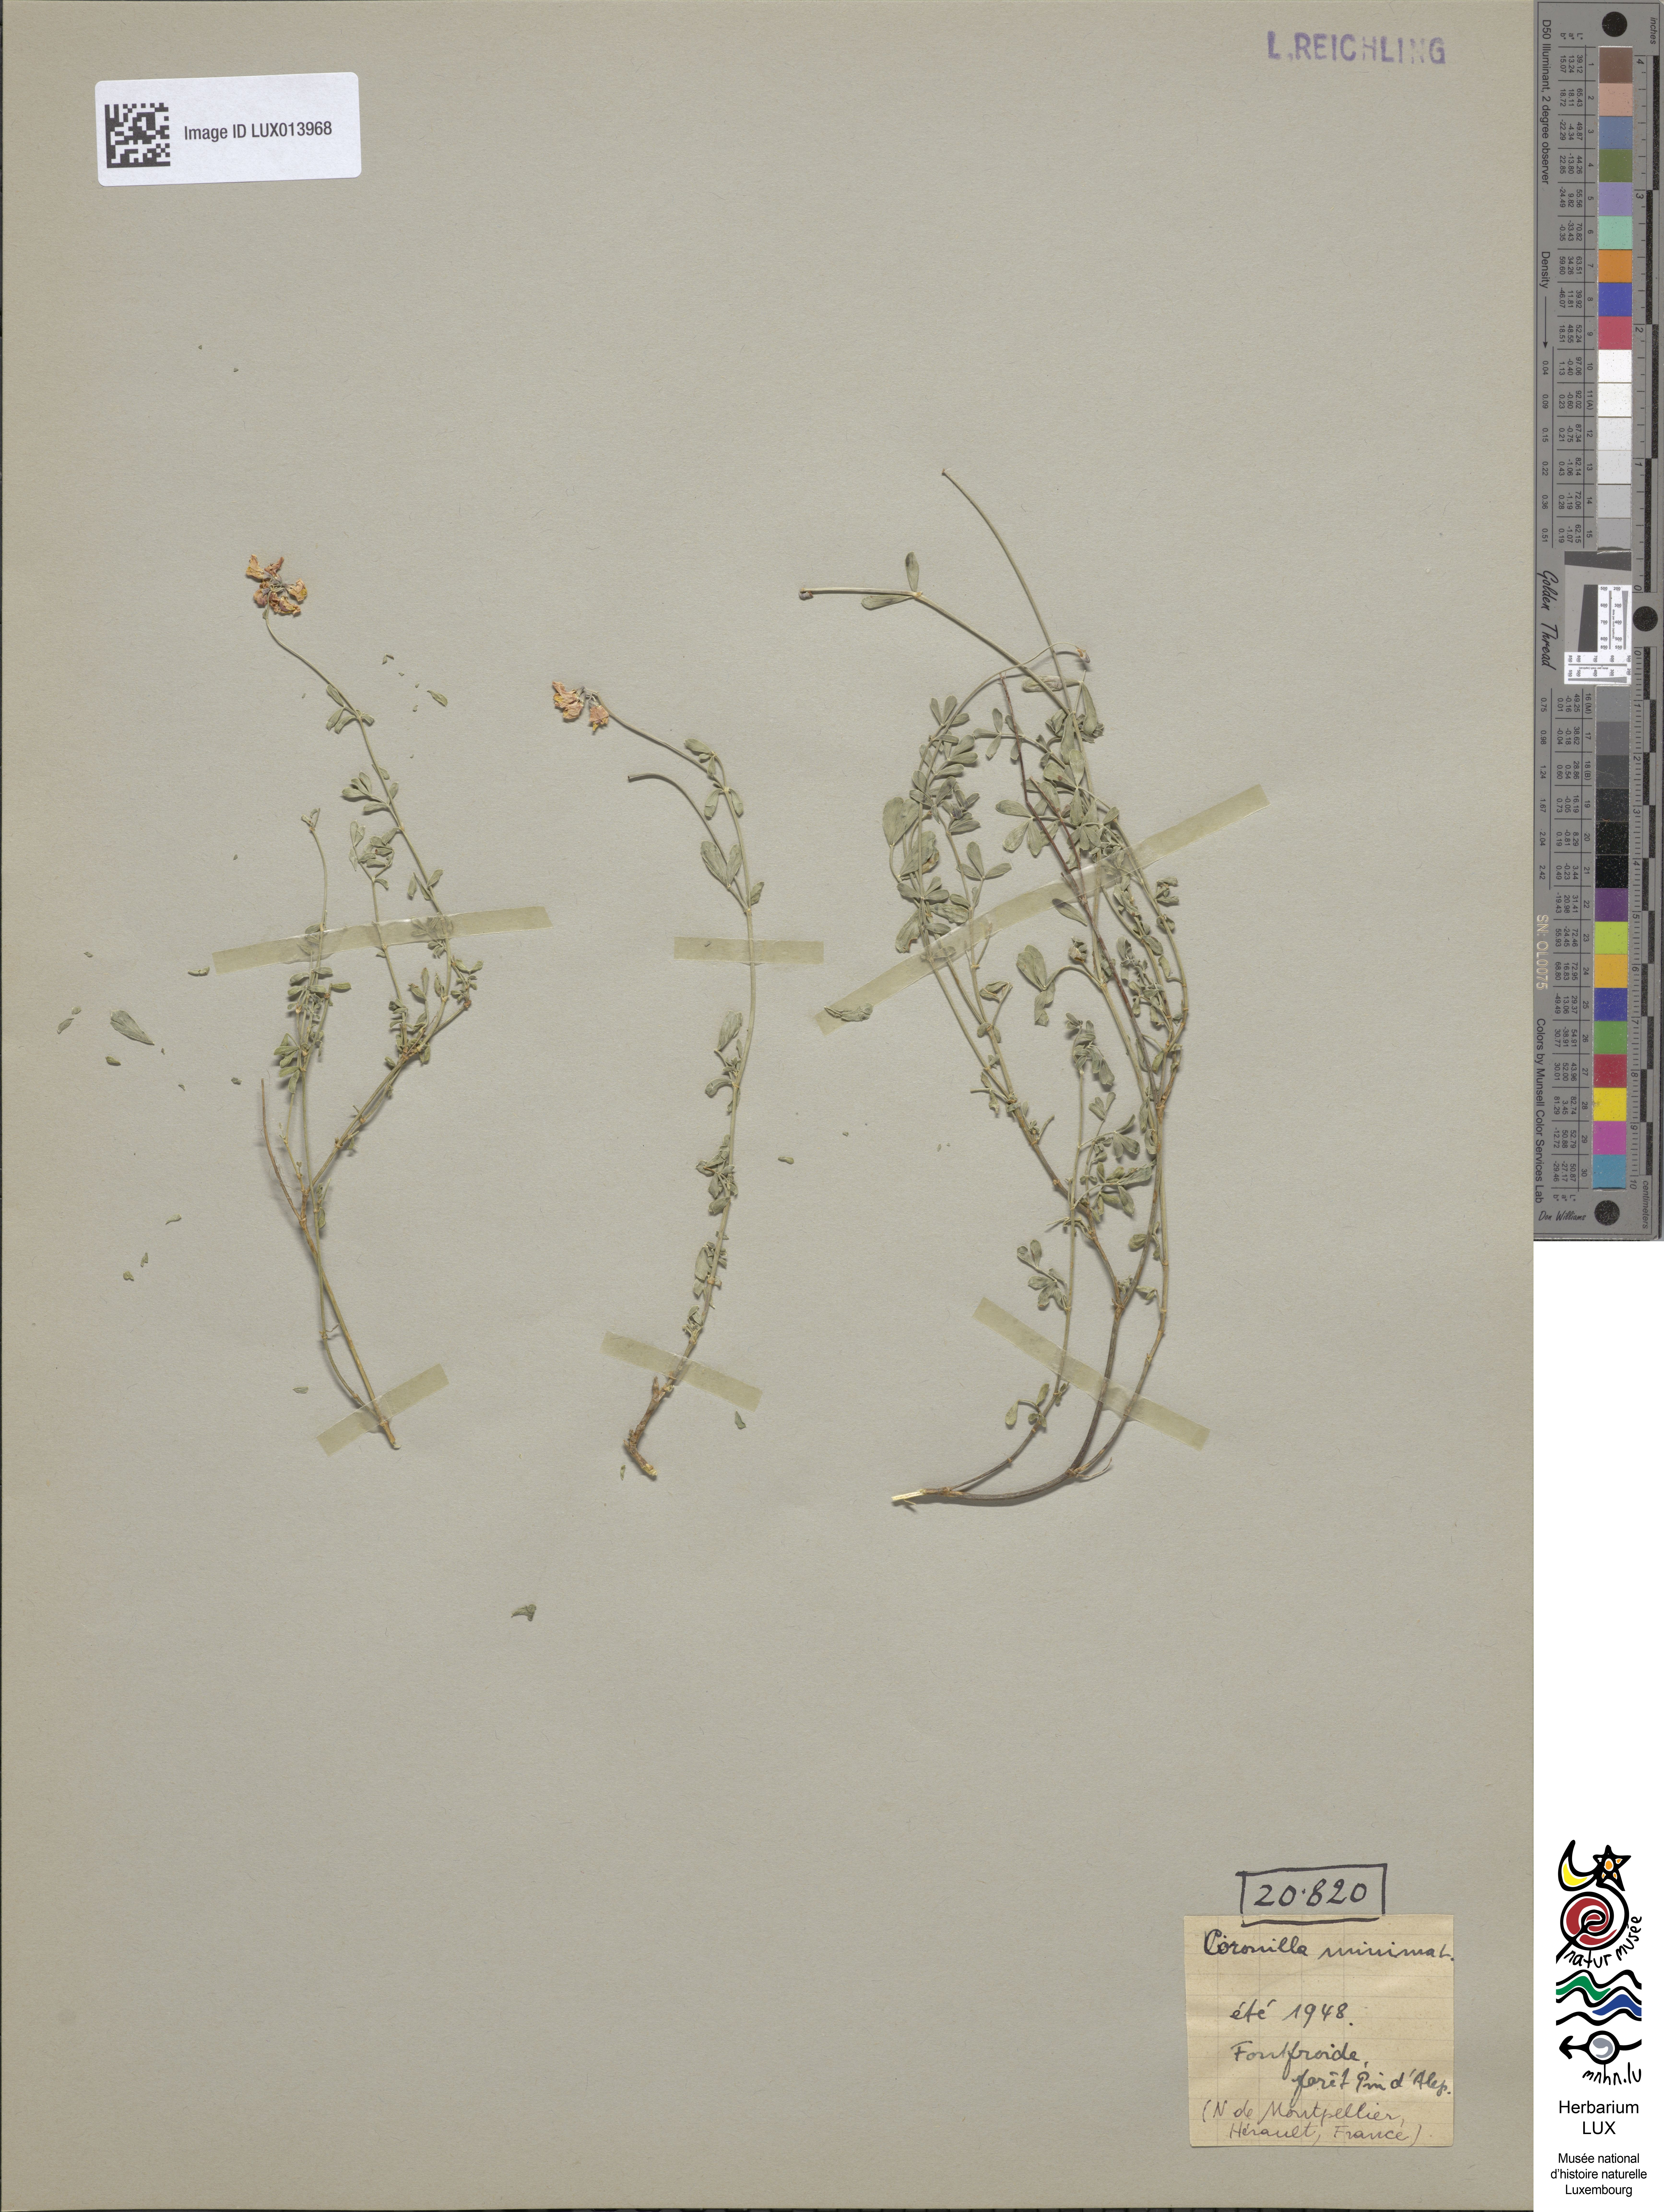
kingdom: Plantae
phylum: Tracheophyta
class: Magnoliopsida
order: Fabales
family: Fabaceae
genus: Coronilla
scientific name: Coronilla minima
